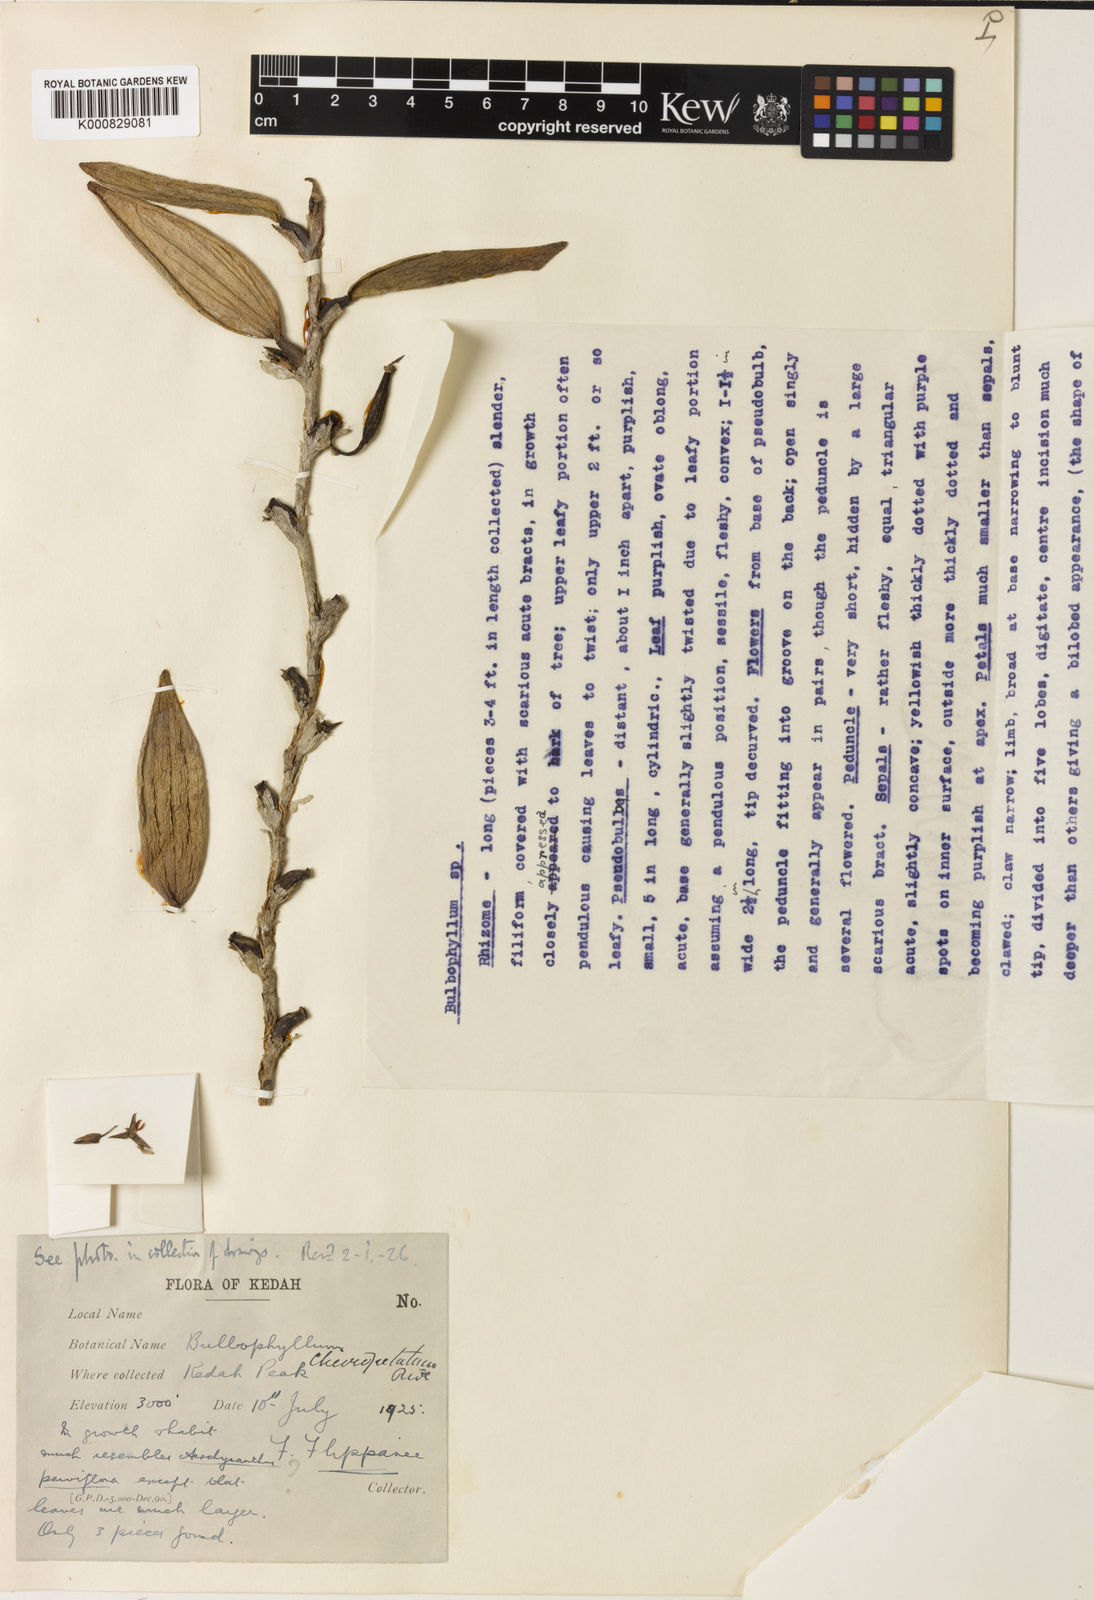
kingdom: Plantae
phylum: Tracheophyta
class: Liliopsida
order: Asparagales
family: Orchidaceae
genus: Bulbophyllum
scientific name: Bulbophyllum cheiropetalum
